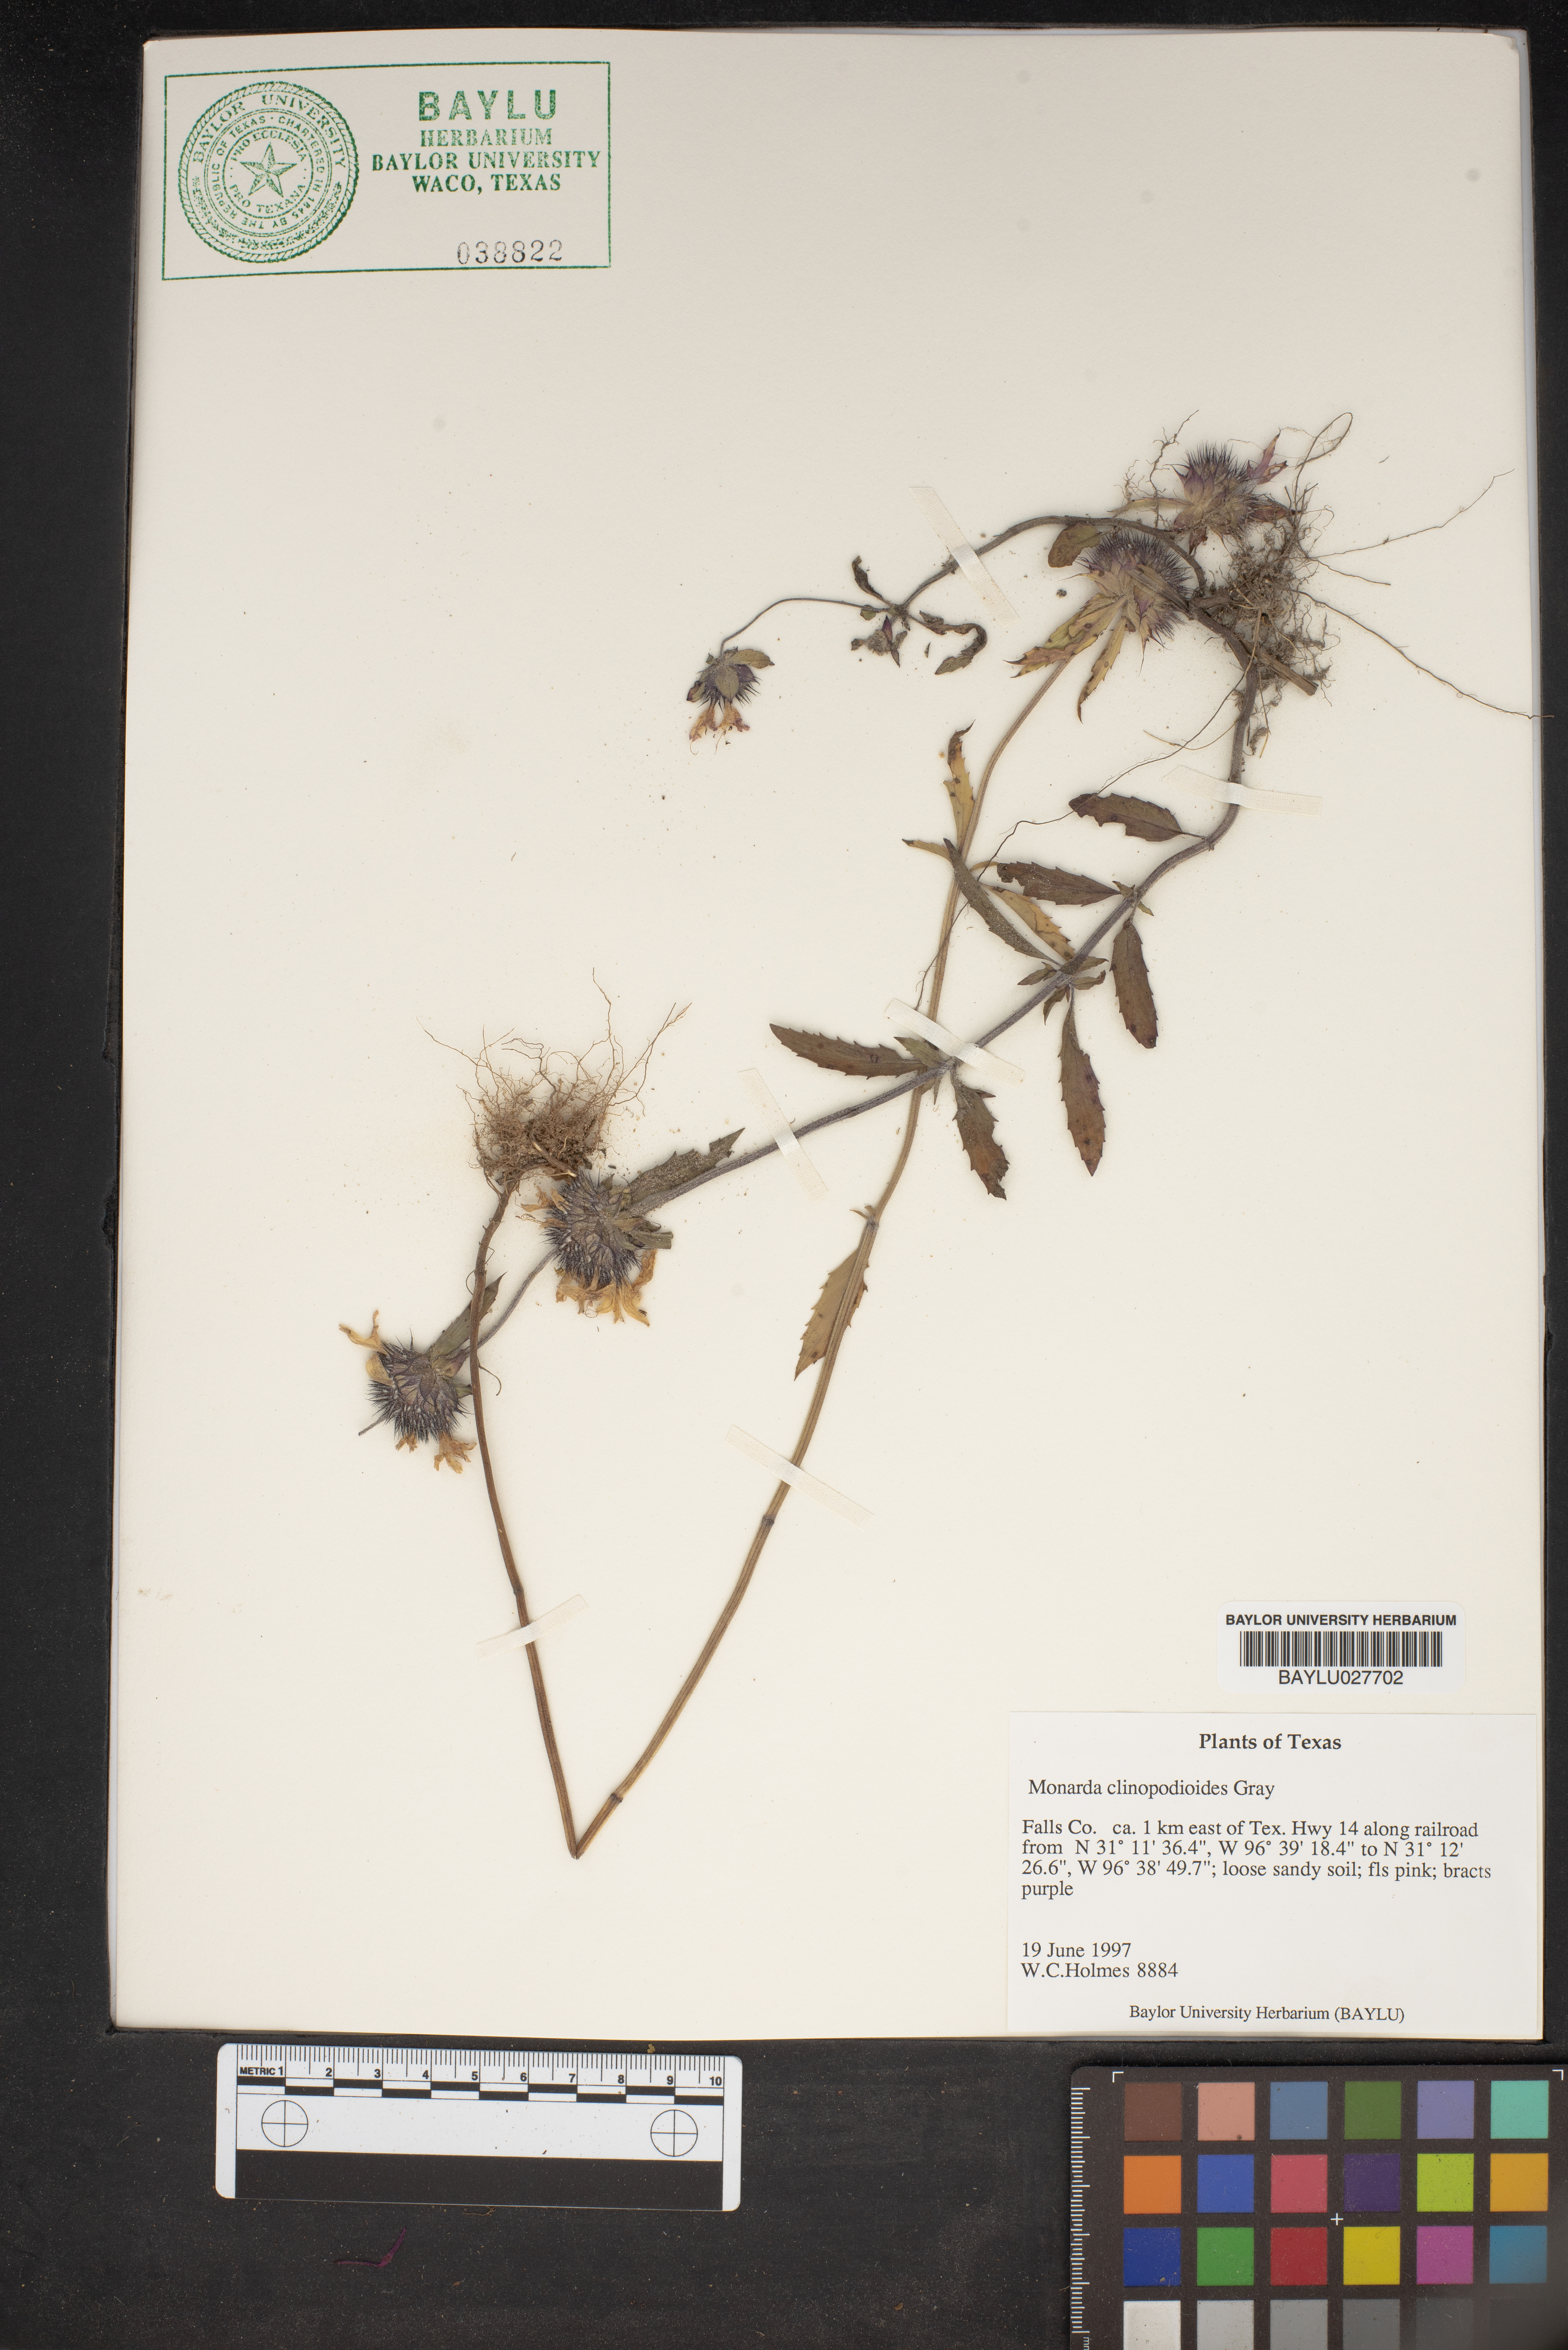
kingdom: Plantae
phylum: Tracheophyta
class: Magnoliopsida
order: Lamiales
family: Lamiaceae
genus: Monarda
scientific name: Monarda clinopodioides
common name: Basil beebalm
